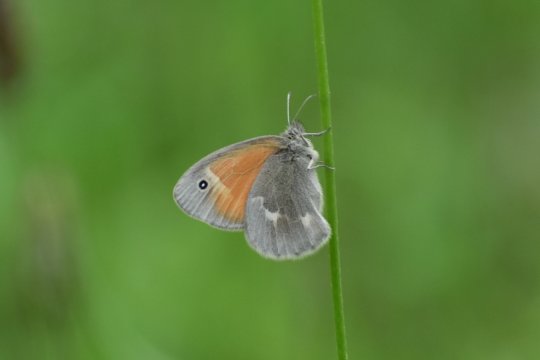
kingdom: Animalia
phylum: Arthropoda
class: Insecta
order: Lepidoptera
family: Nymphalidae
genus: Coenonympha
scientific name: Coenonympha tullia
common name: Large Heath
